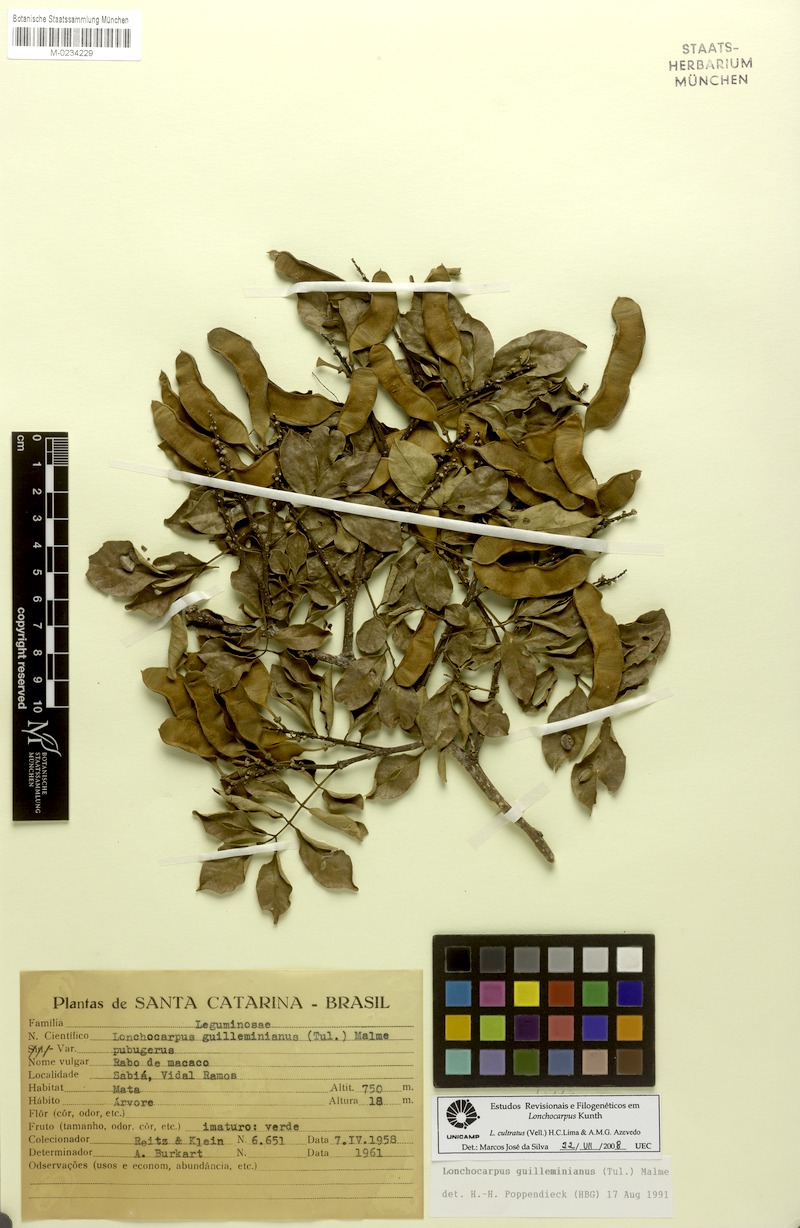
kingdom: Plantae
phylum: Tracheophyta
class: Magnoliopsida
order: Fabales
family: Fabaceae
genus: Lonchocarpus
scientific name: Lonchocarpus cultratus
